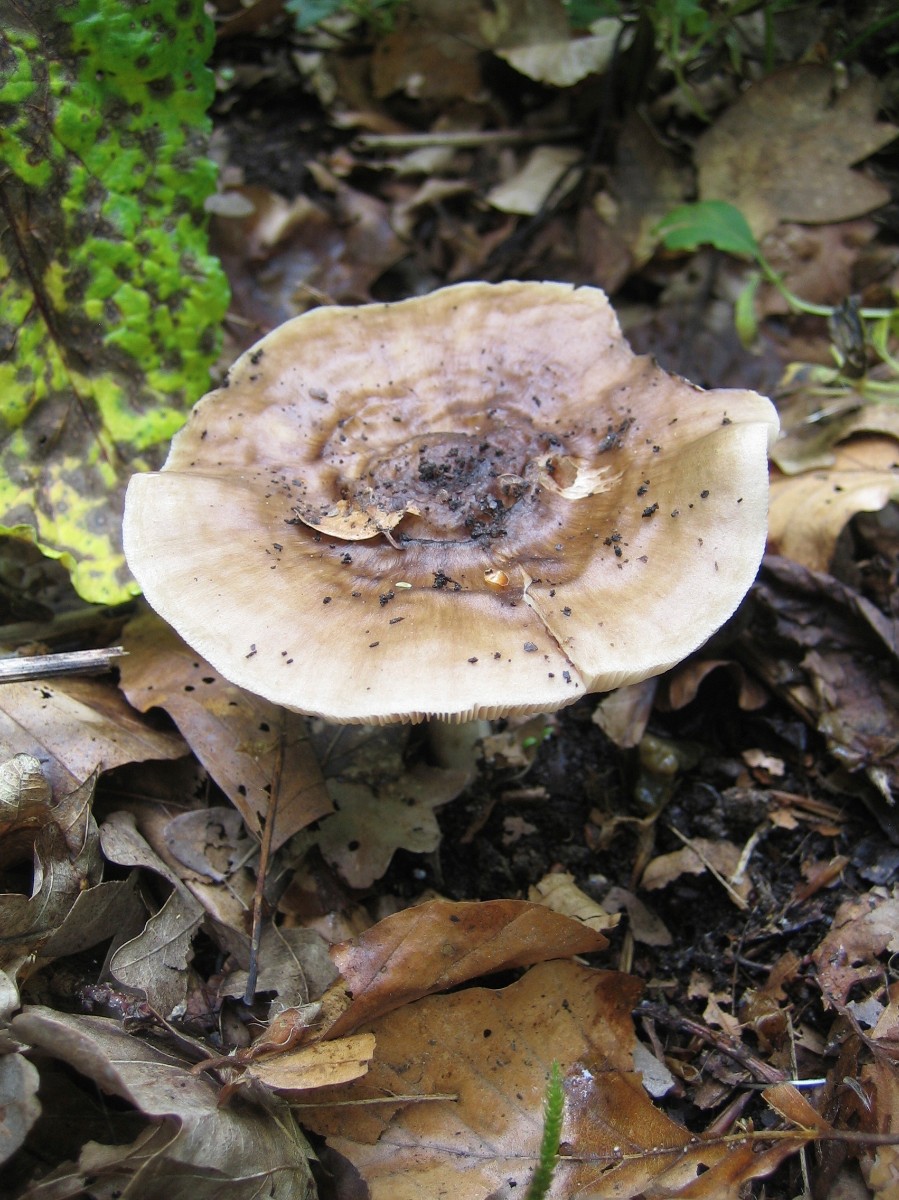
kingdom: Fungi
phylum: Basidiomycota
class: Agaricomycetes
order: Agaricales
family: Pluteaceae
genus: Pluteus
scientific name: Pluteus cervinus
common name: sodfarvet skærmhat
